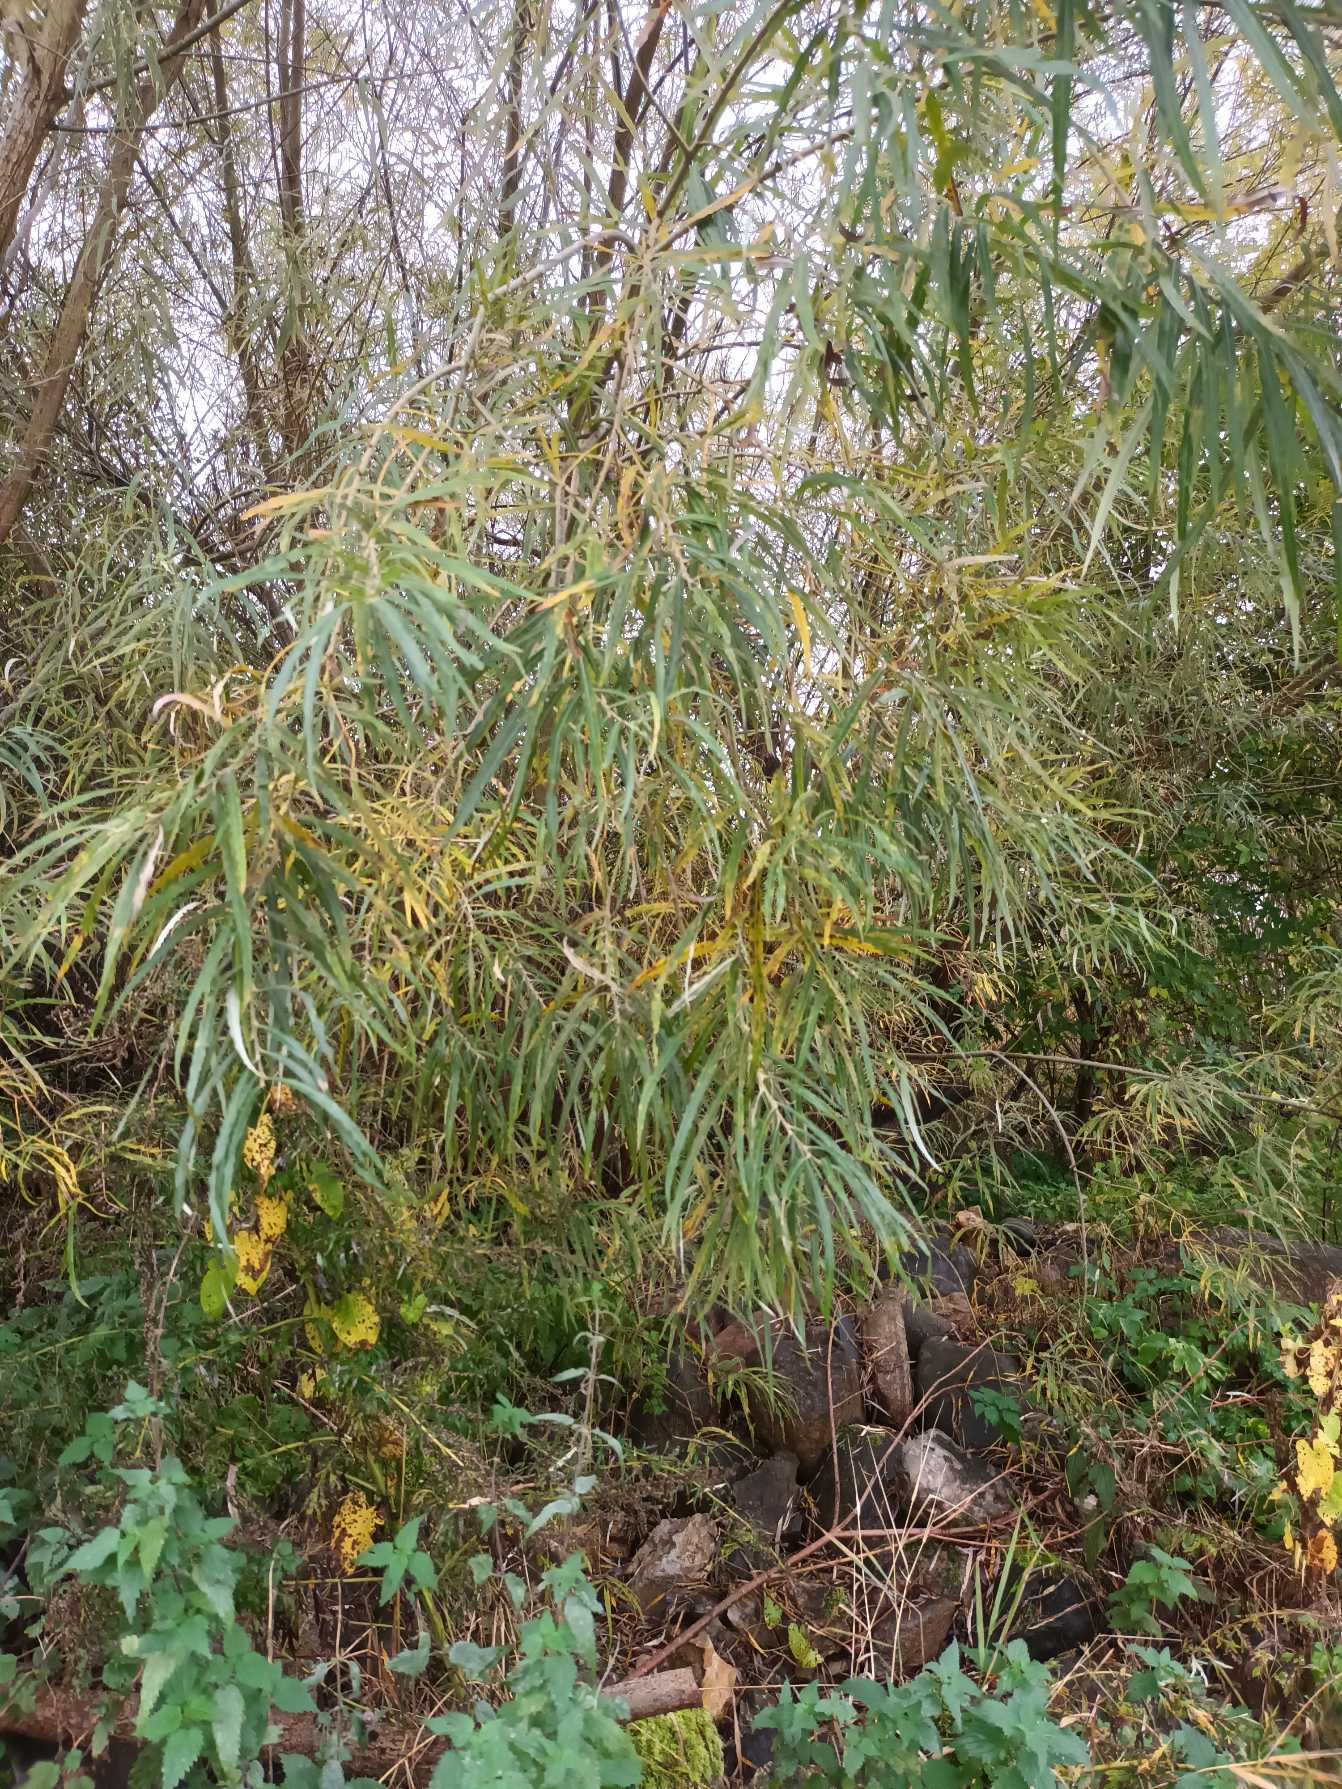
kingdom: Plantae
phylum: Tracheophyta
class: Magnoliopsida
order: Malpighiales
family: Salicaceae
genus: Salix
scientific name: Salix viminalis
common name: Bånd-pil
